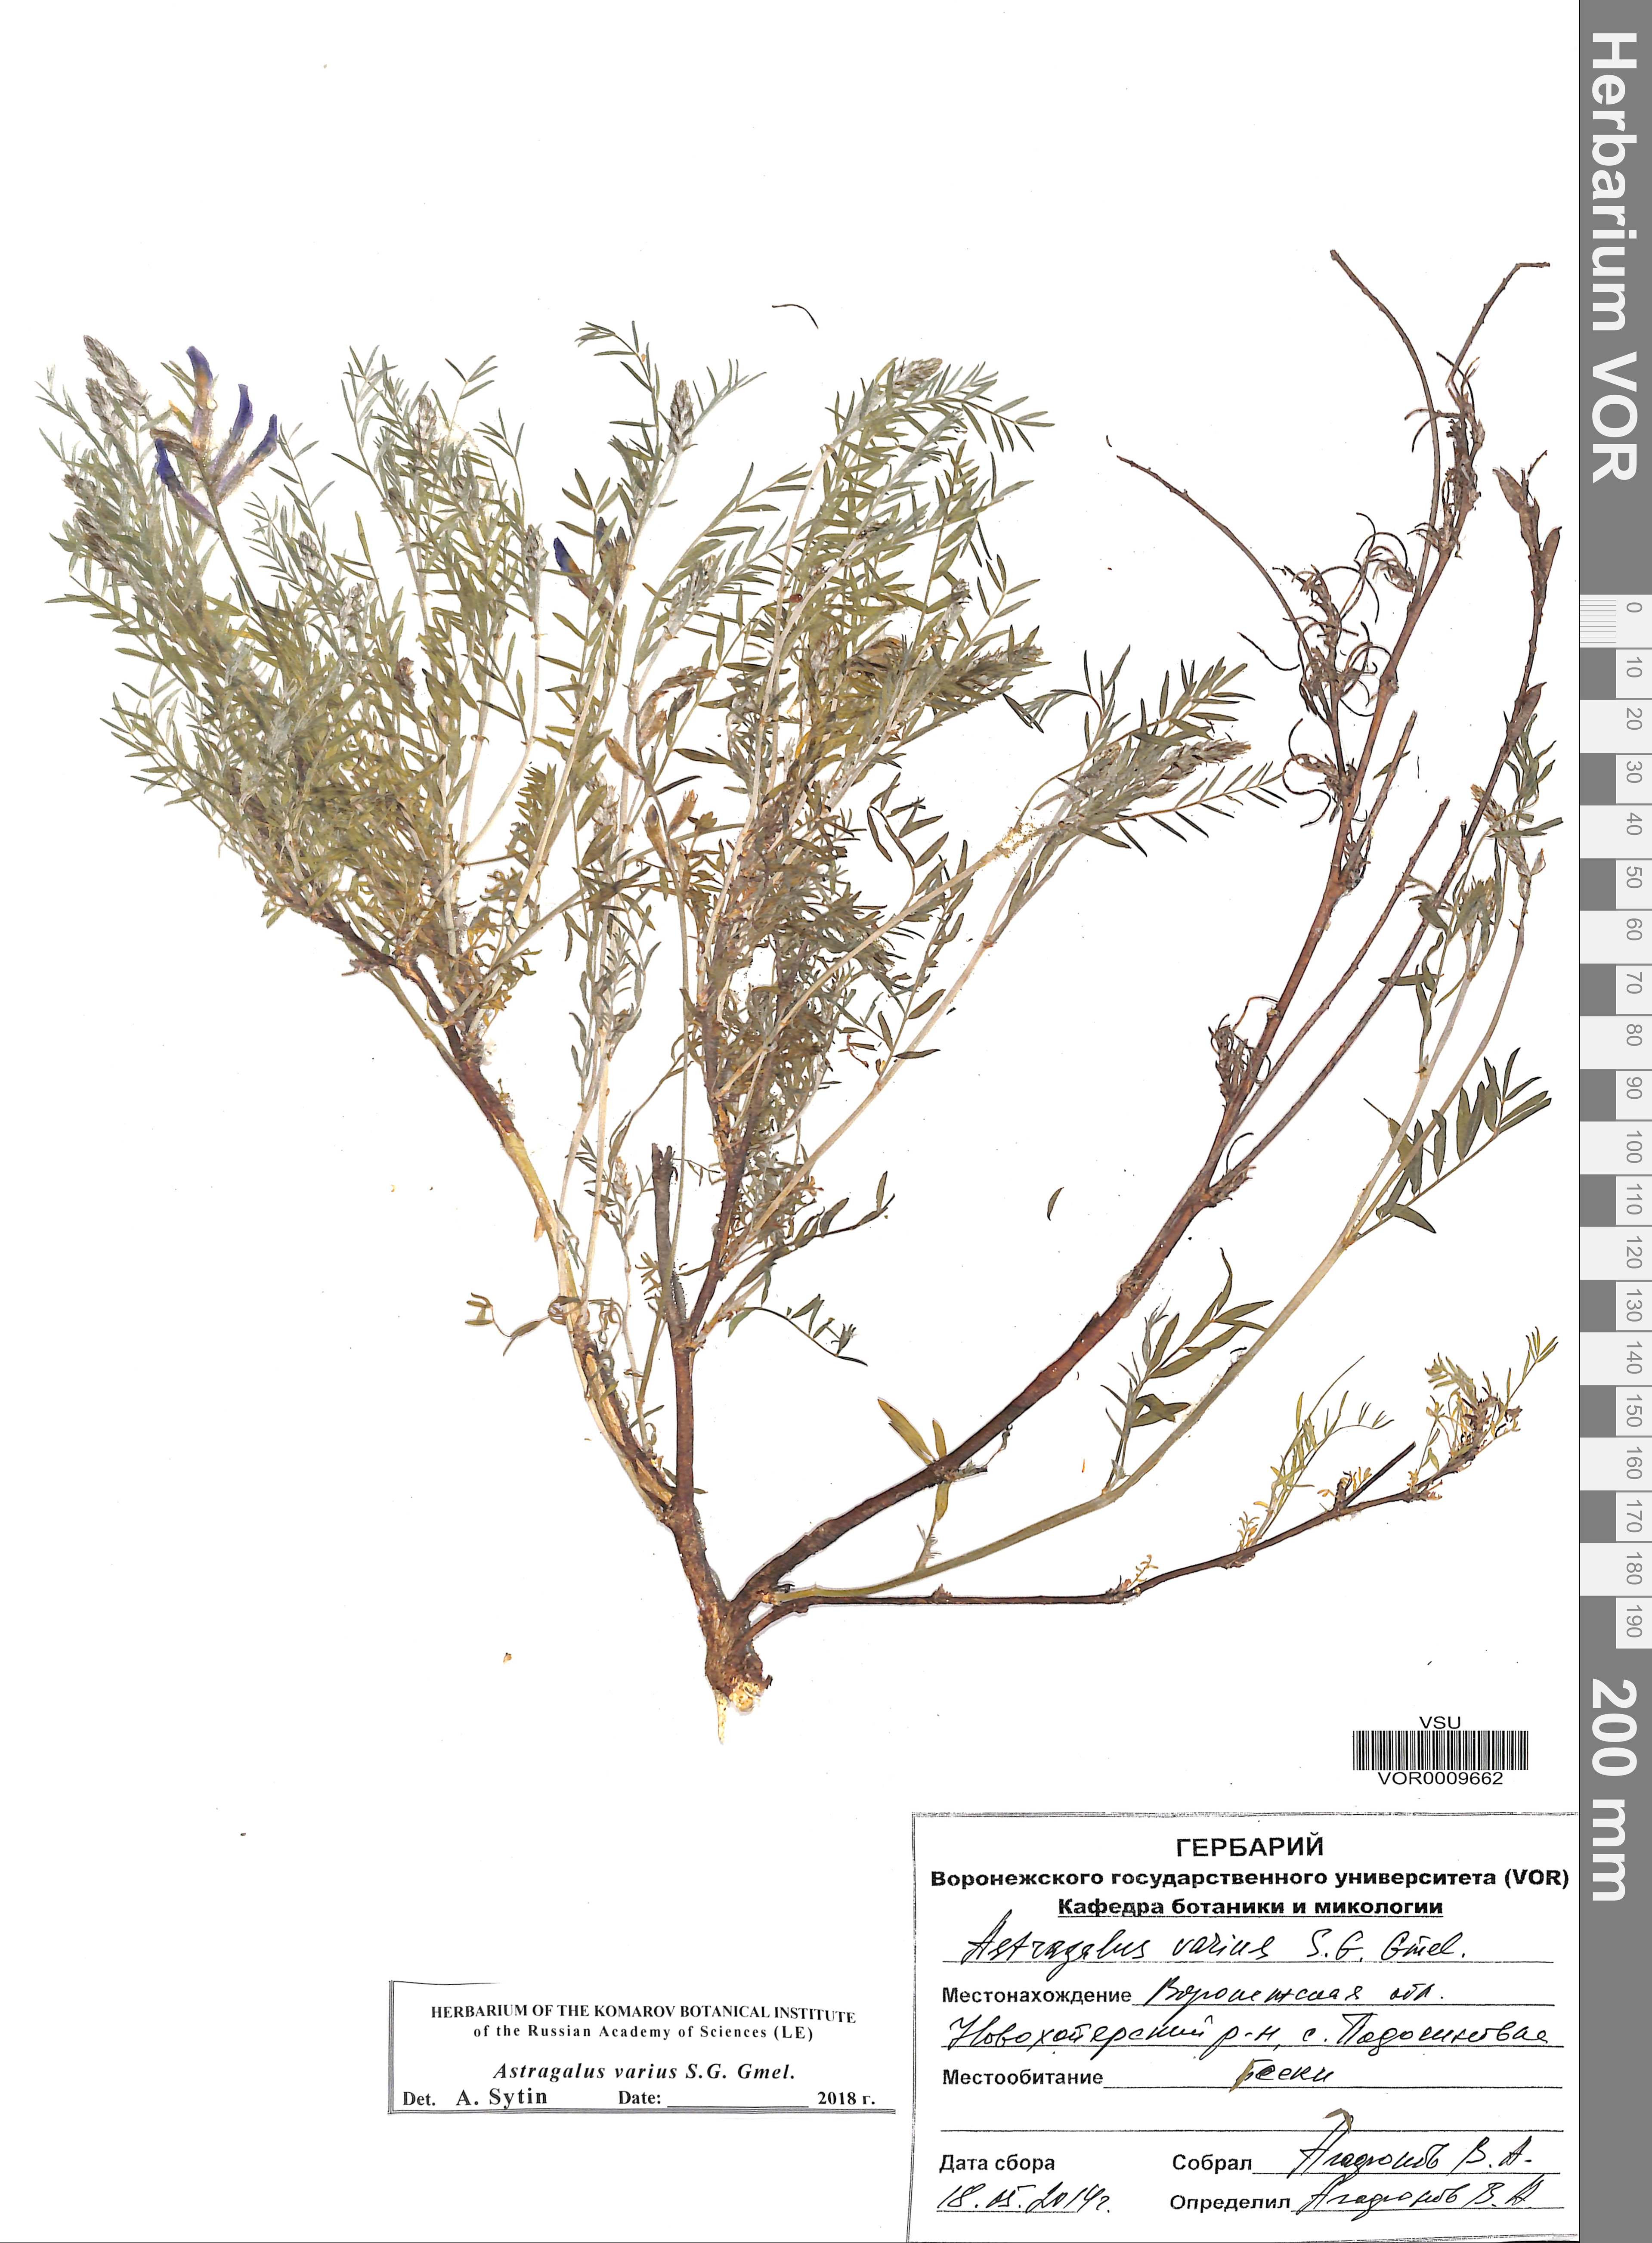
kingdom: Plantae
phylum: Tracheophyta
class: Magnoliopsida
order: Fabales
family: Fabaceae
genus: Astragalus
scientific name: Astragalus varius
